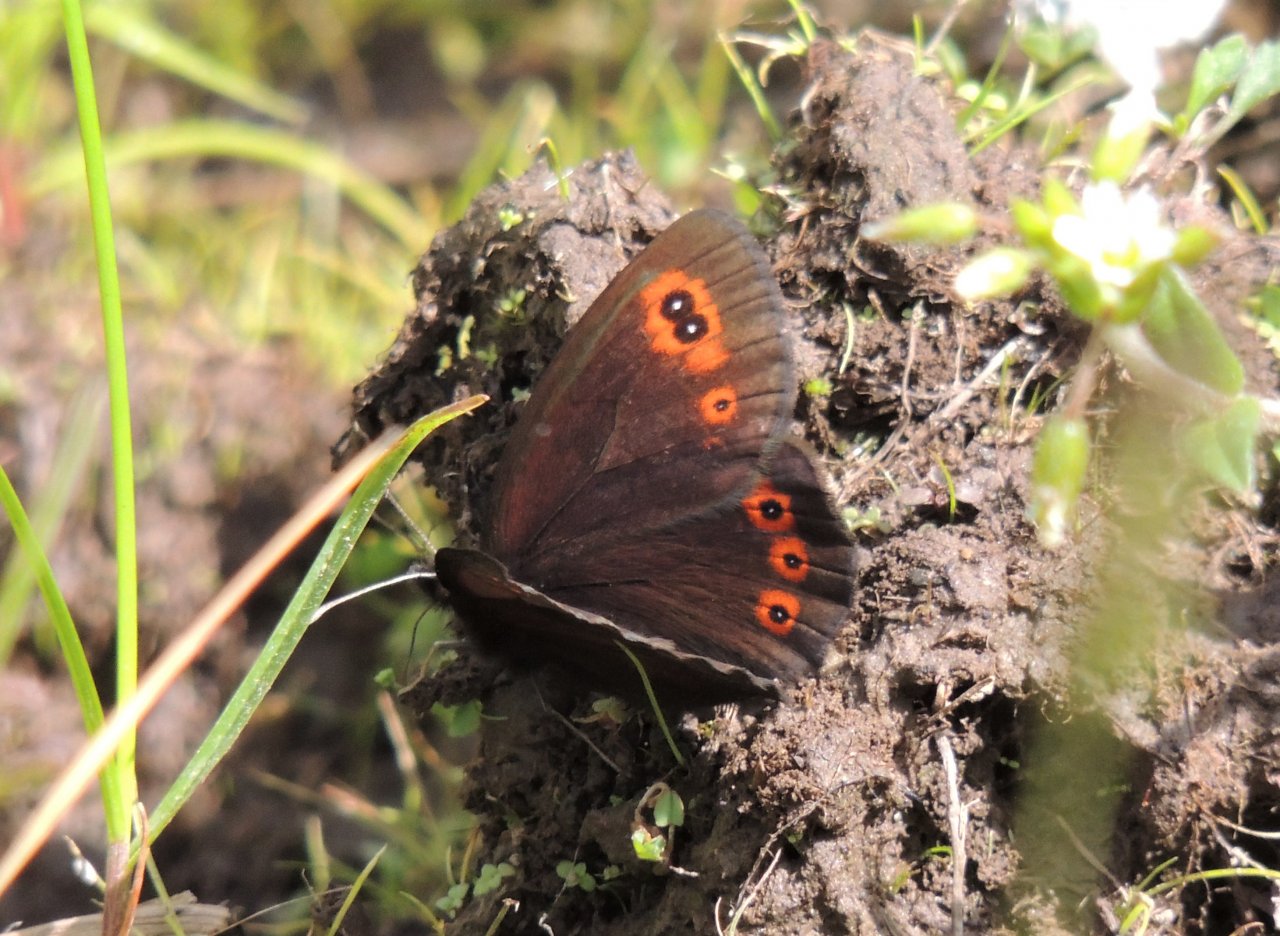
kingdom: Animalia
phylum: Arthropoda
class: Insecta
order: Lepidoptera
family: Nymphalidae
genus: Erebia
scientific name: Erebia epipsodea
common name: Common Alpine
